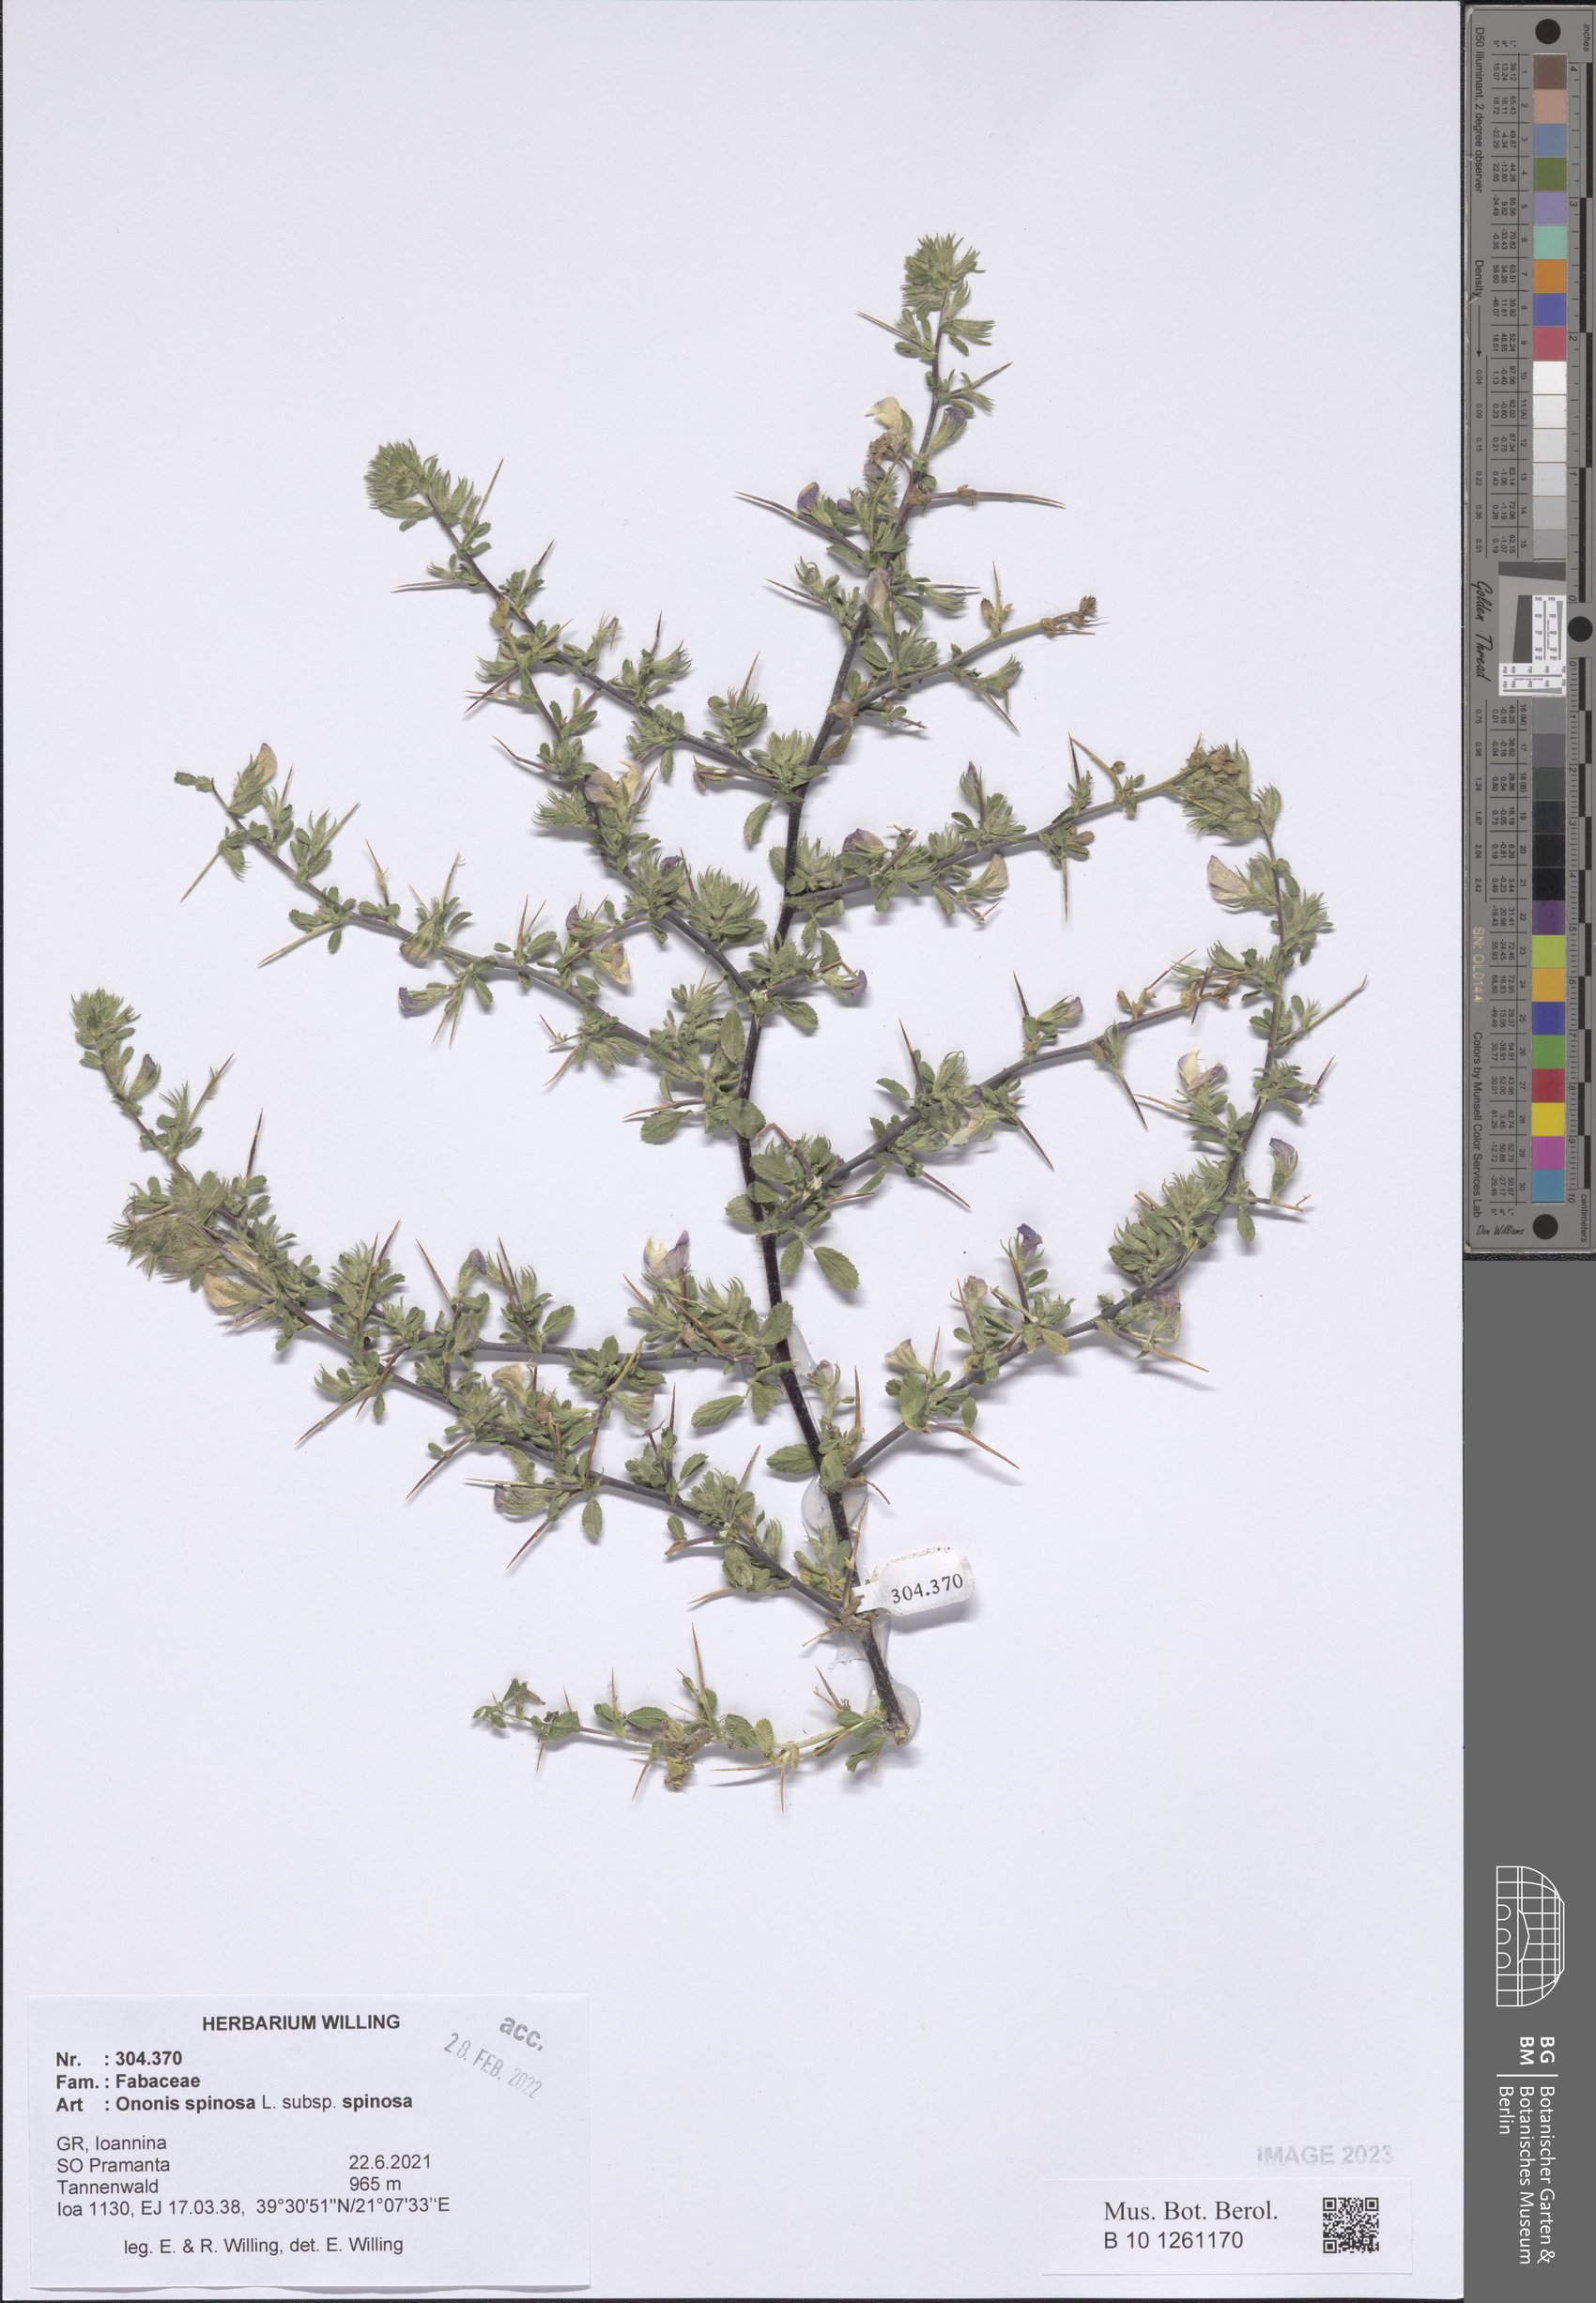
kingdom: Plantae
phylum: Tracheophyta
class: Magnoliopsida
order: Fabales
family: Fabaceae
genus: Ononis
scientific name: Ononis spinosa
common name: Spiny restharrow
